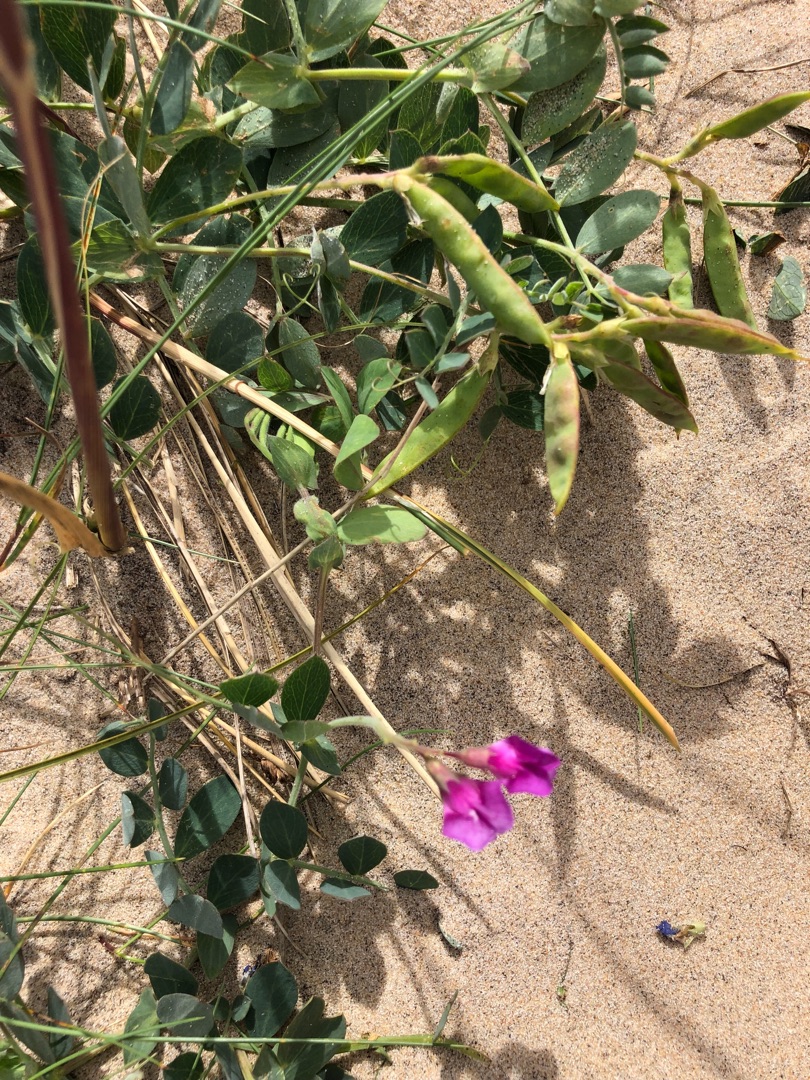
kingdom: Plantae
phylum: Tracheophyta
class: Magnoliopsida
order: Fabales
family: Fabaceae
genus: Lathyrus
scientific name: Lathyrus japonicus
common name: Strand-fladbælg
